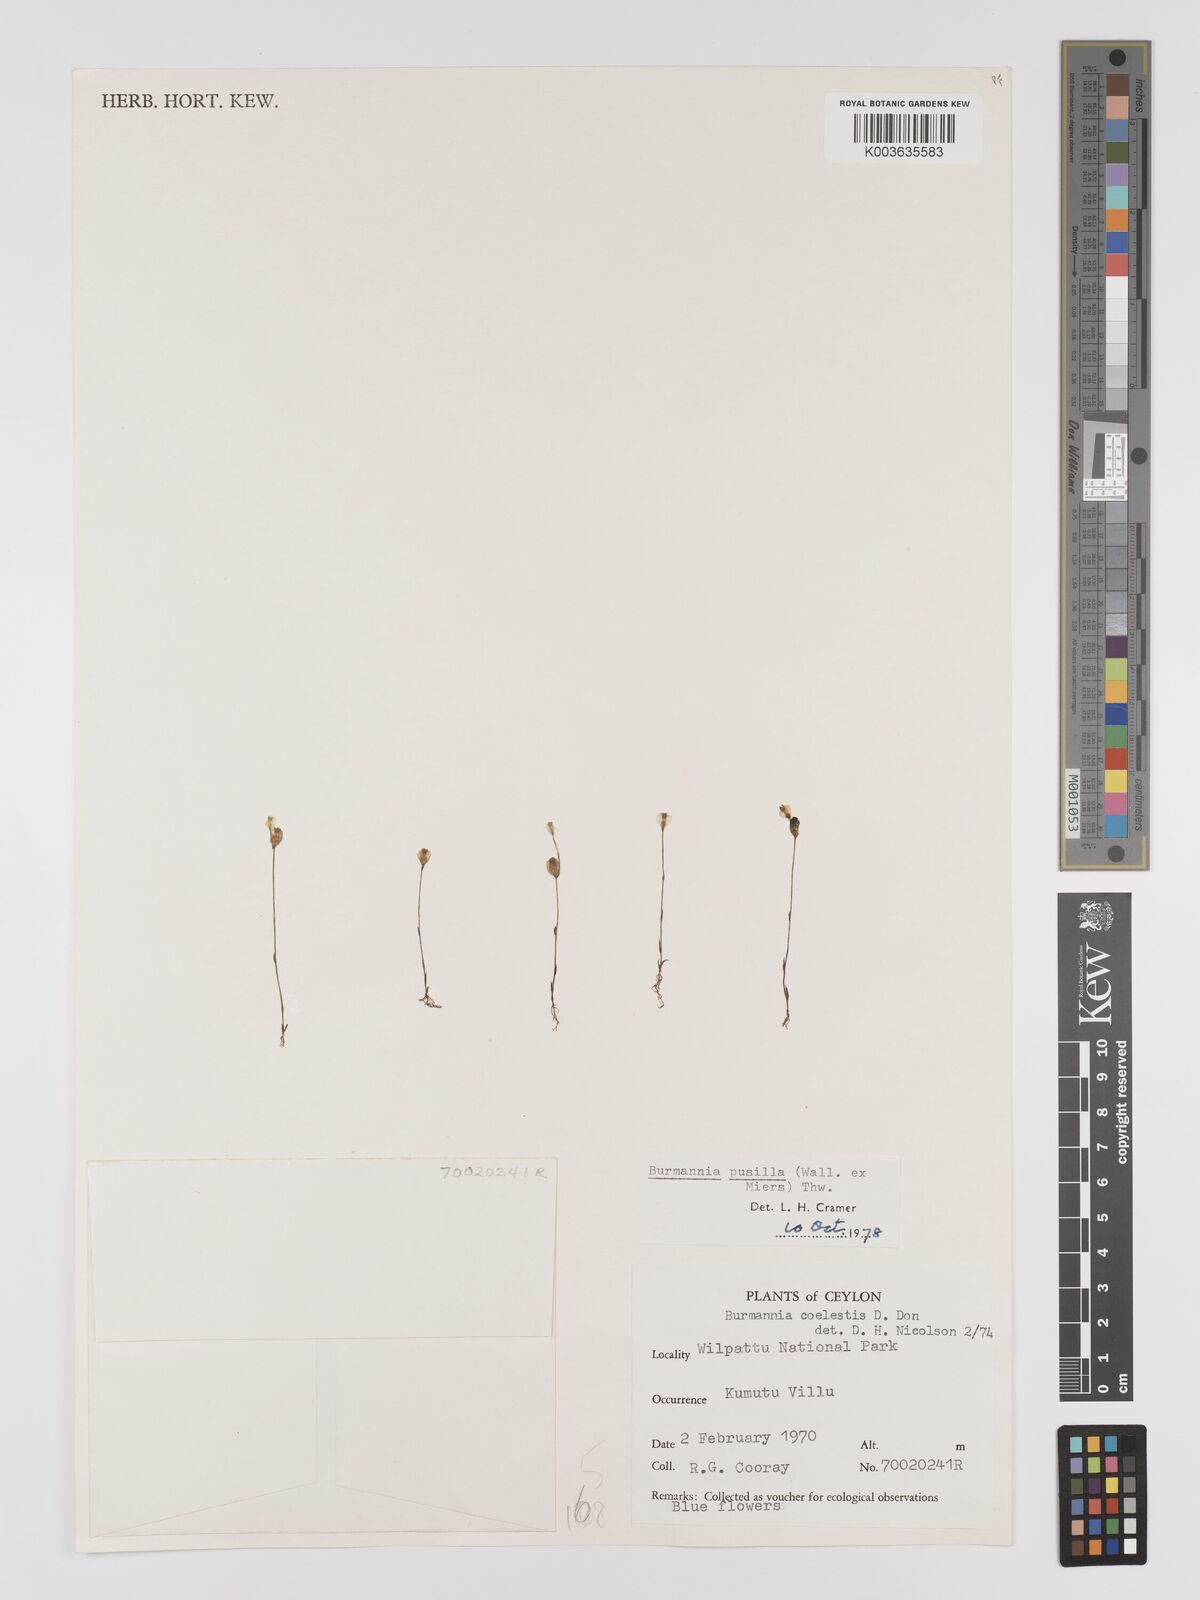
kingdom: Plantae
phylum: Tracheophyta
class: Liliopsida
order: Dioscoreales
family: Burmanniaceae
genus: Burmannia
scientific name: Burmannia pusilla
